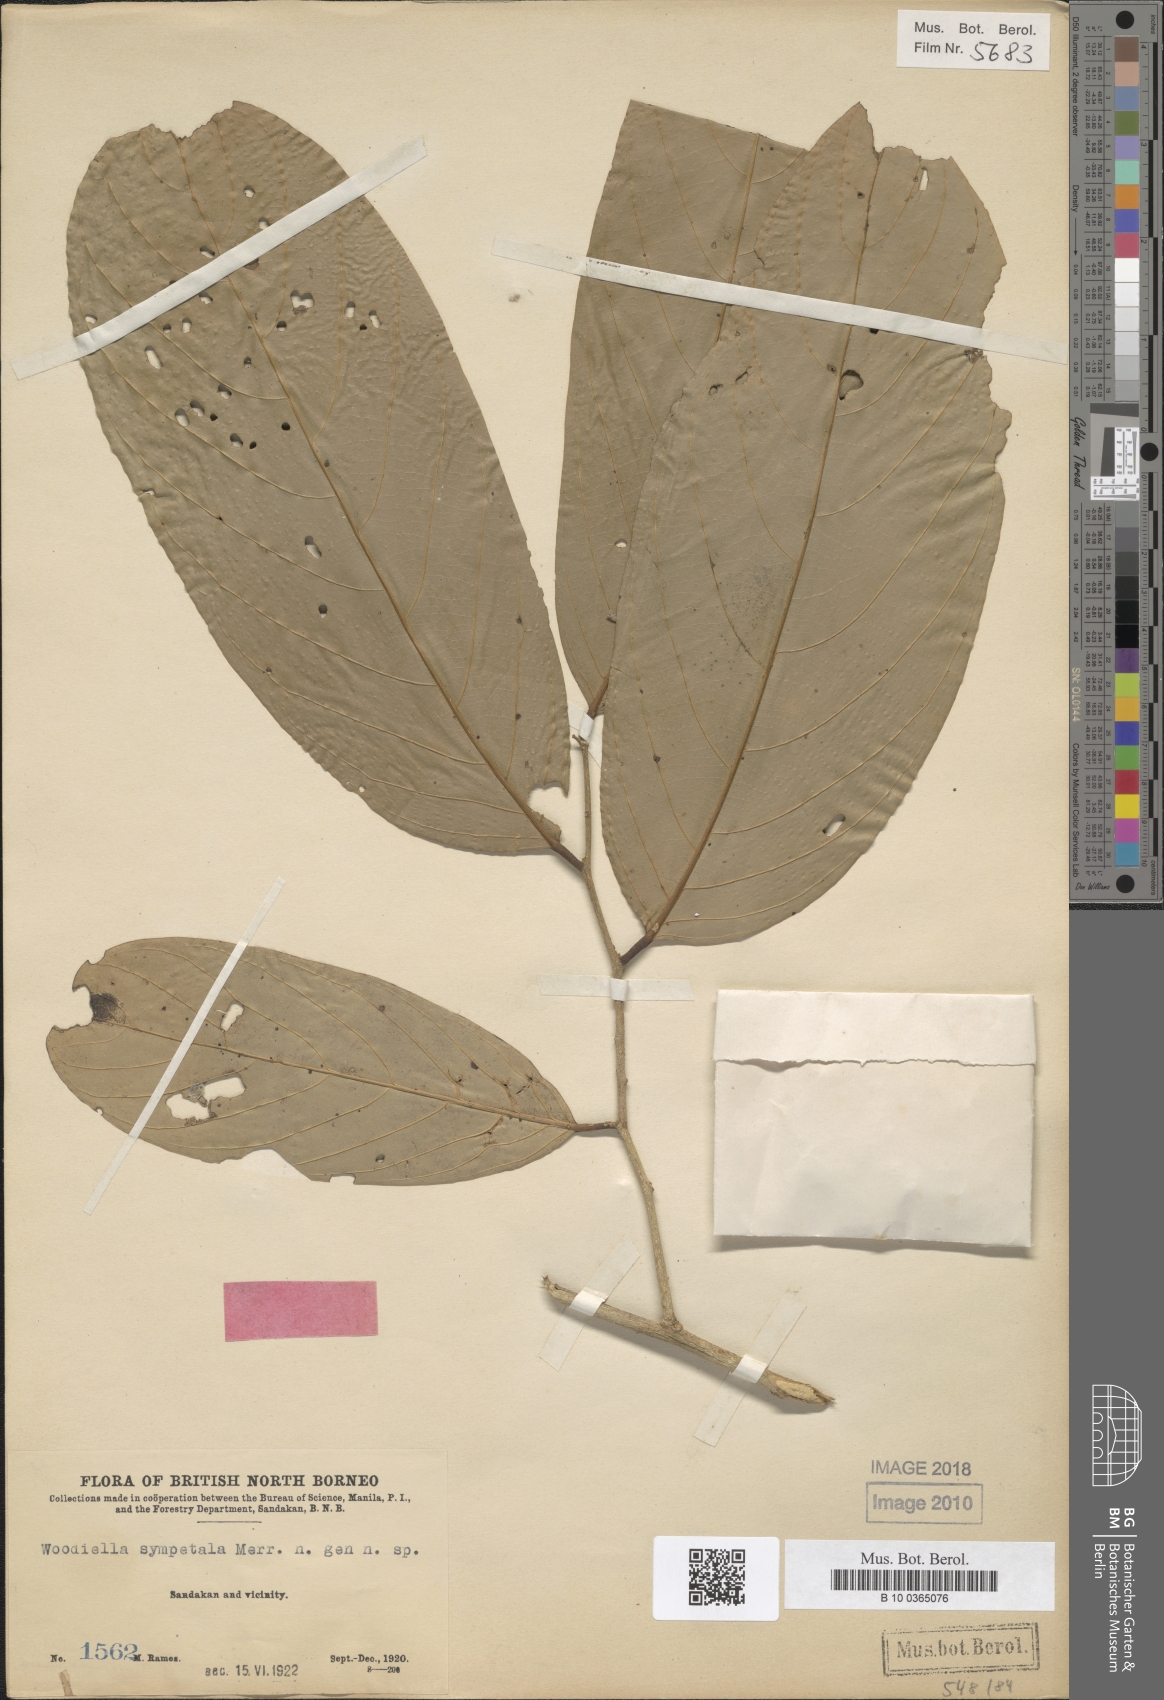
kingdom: Plantae
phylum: Tracheophyta
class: Magnoliopsida
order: Magnoliales
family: Annonaceae
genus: Woodiellantha
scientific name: Woodiellantha sympetala
